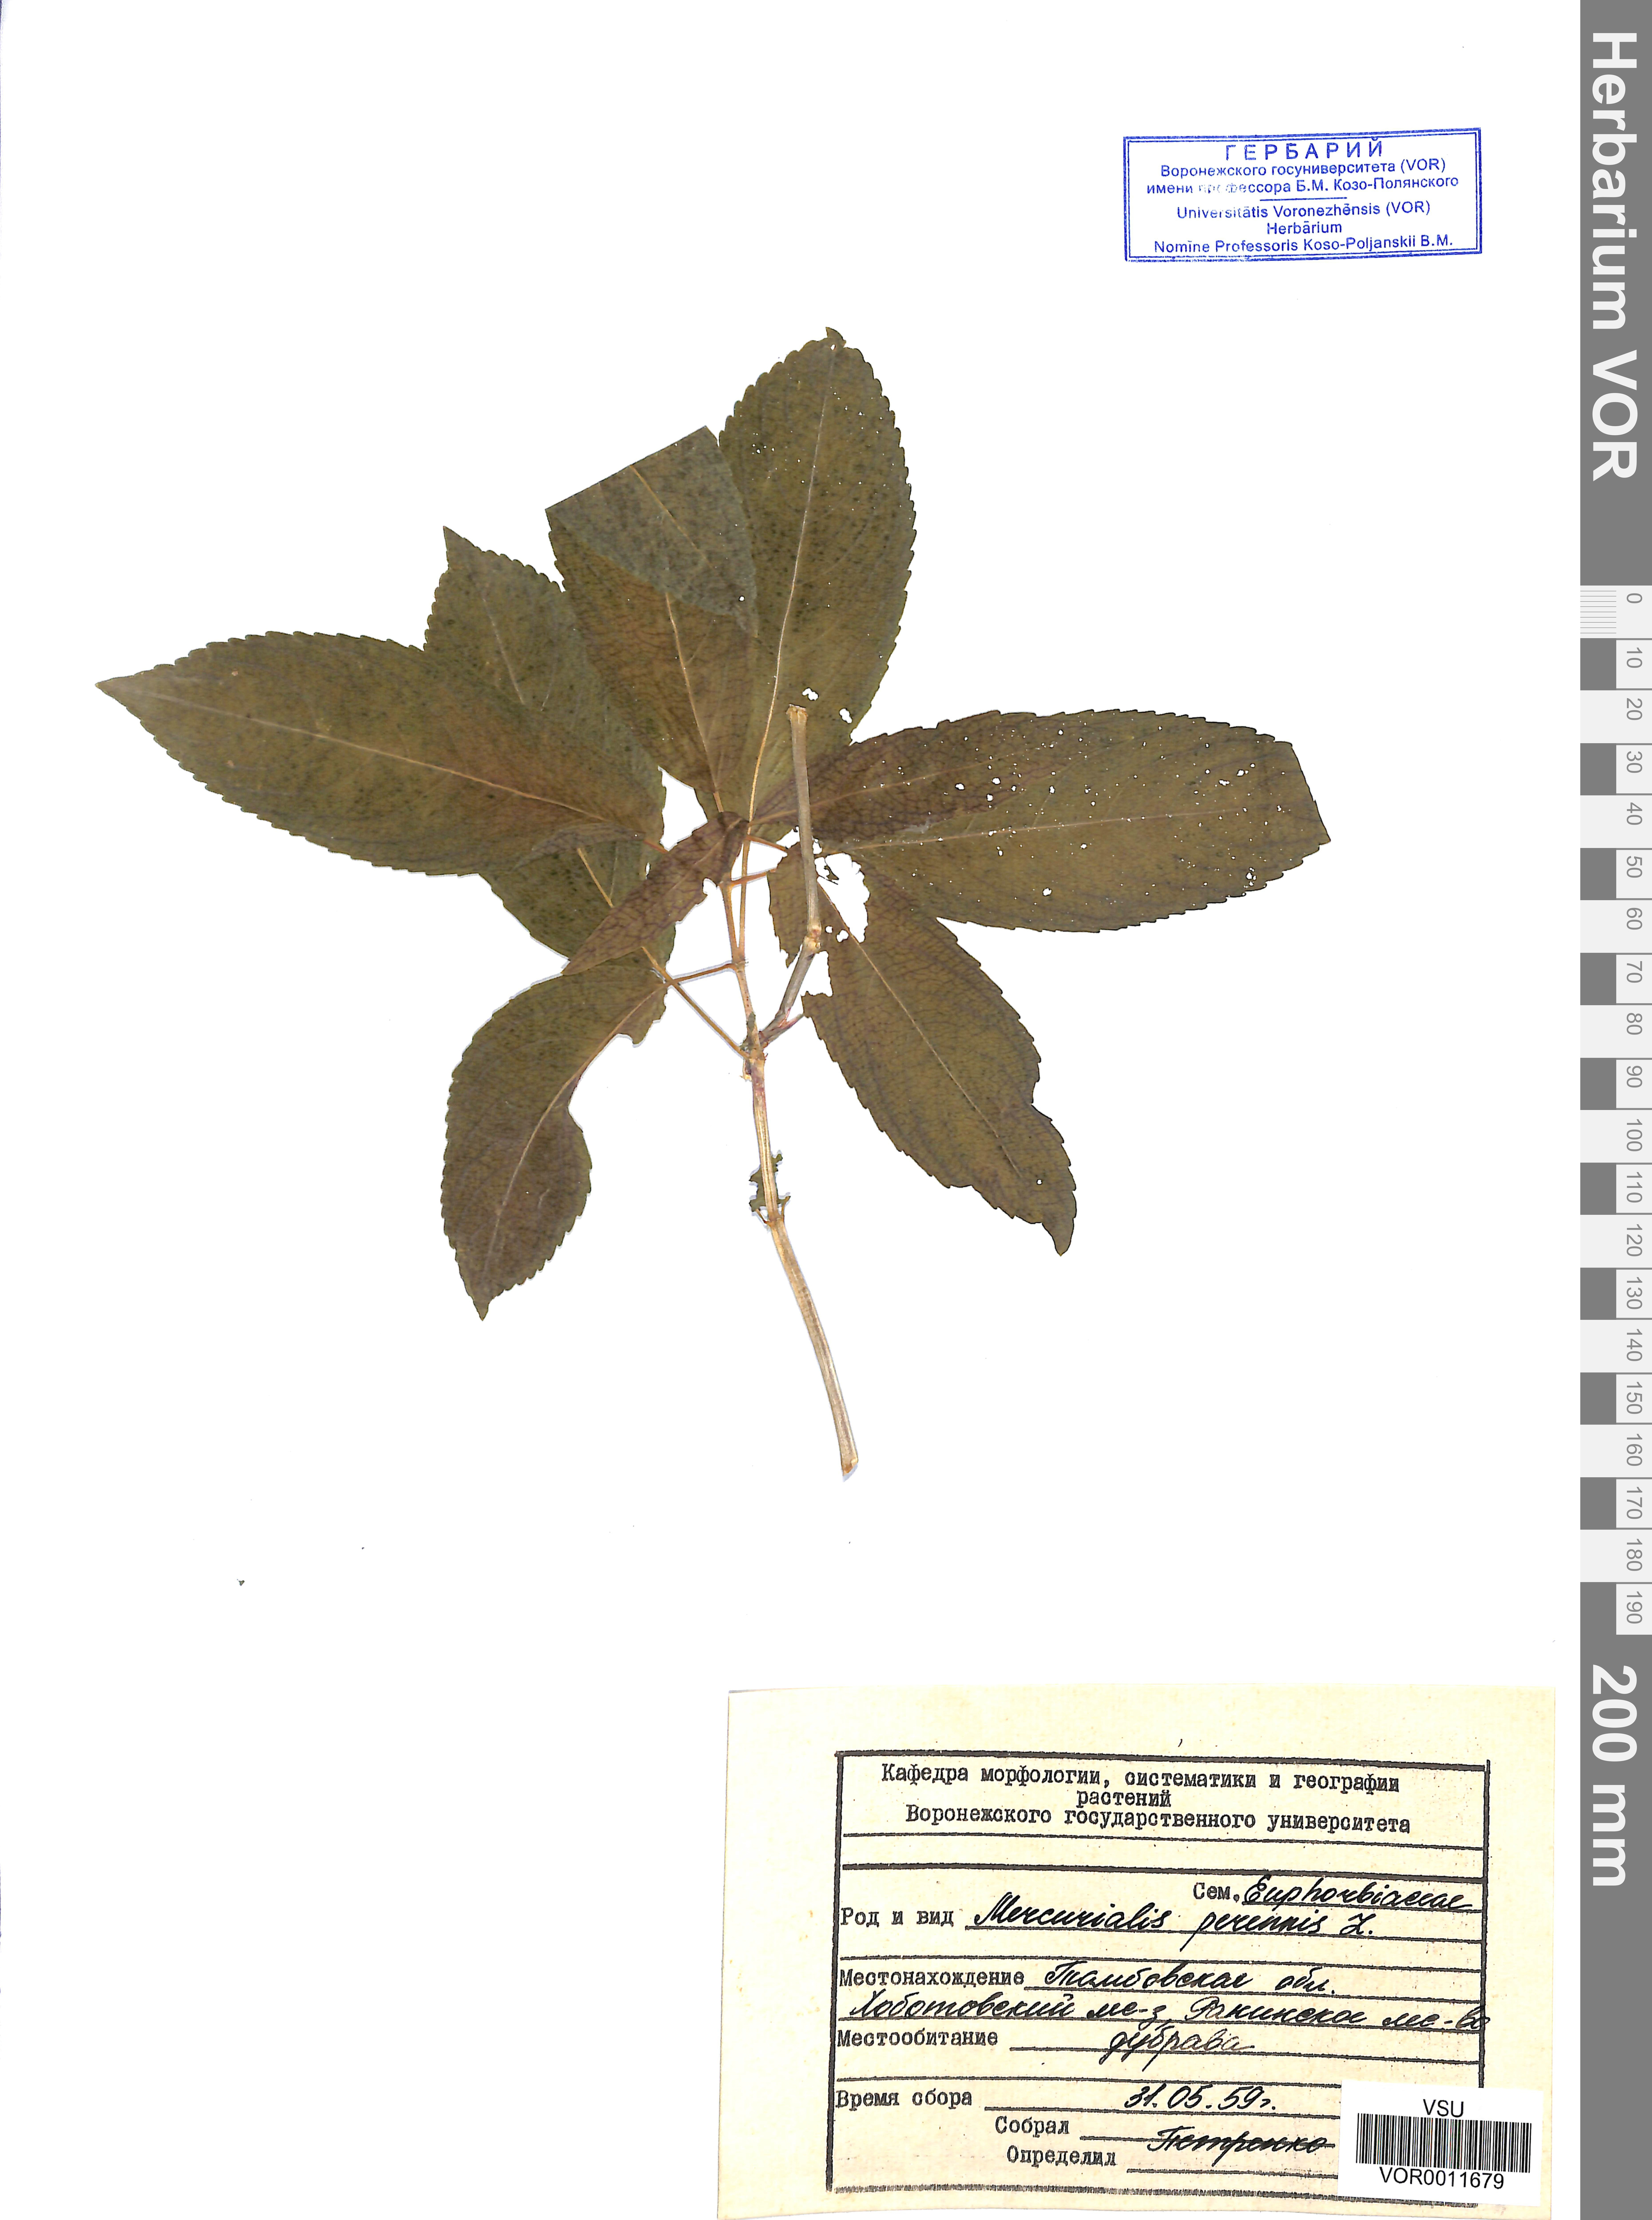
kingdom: Plantae
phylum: Tracheophyta
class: Magnoliopsida
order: Malpighiales
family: Euphorbiaceae
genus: Mercurialis
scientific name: Mercurialis perennis
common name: Dog mercury
